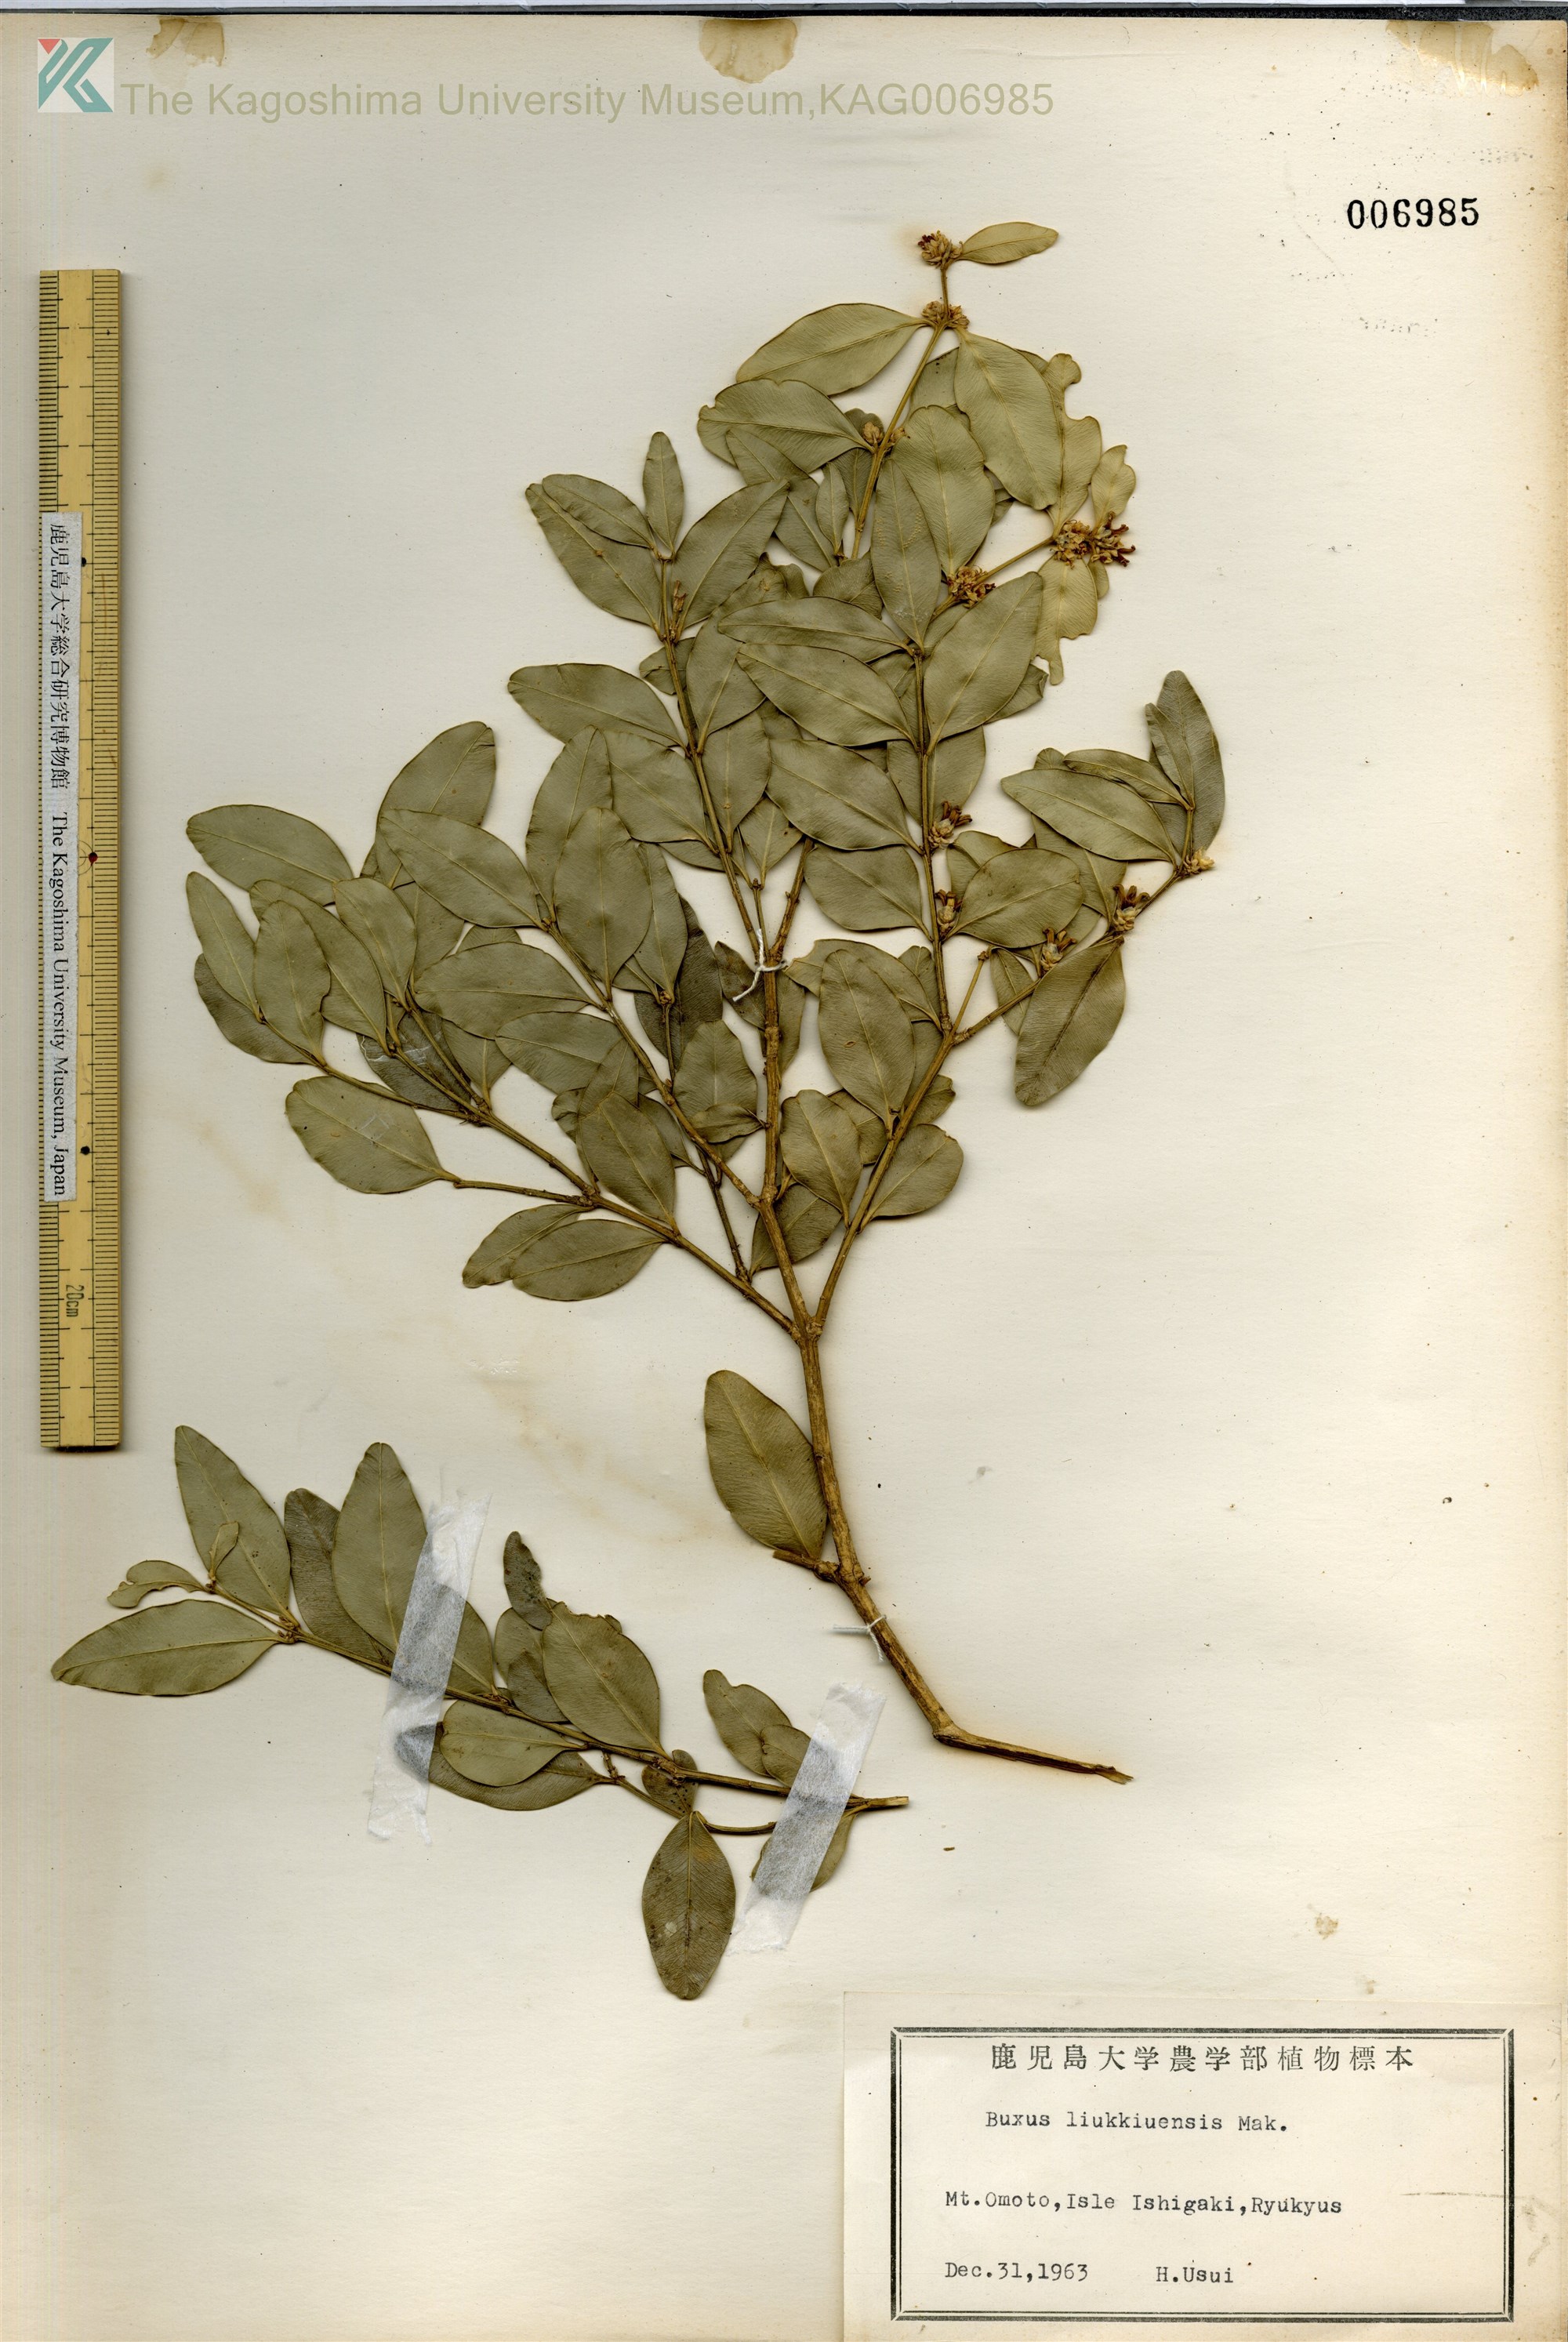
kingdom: Plantae
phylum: Tracheophyta
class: Magnoliopsida
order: Buxales
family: Buxaceae
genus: Buxus
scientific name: Buxus liukiuensis
